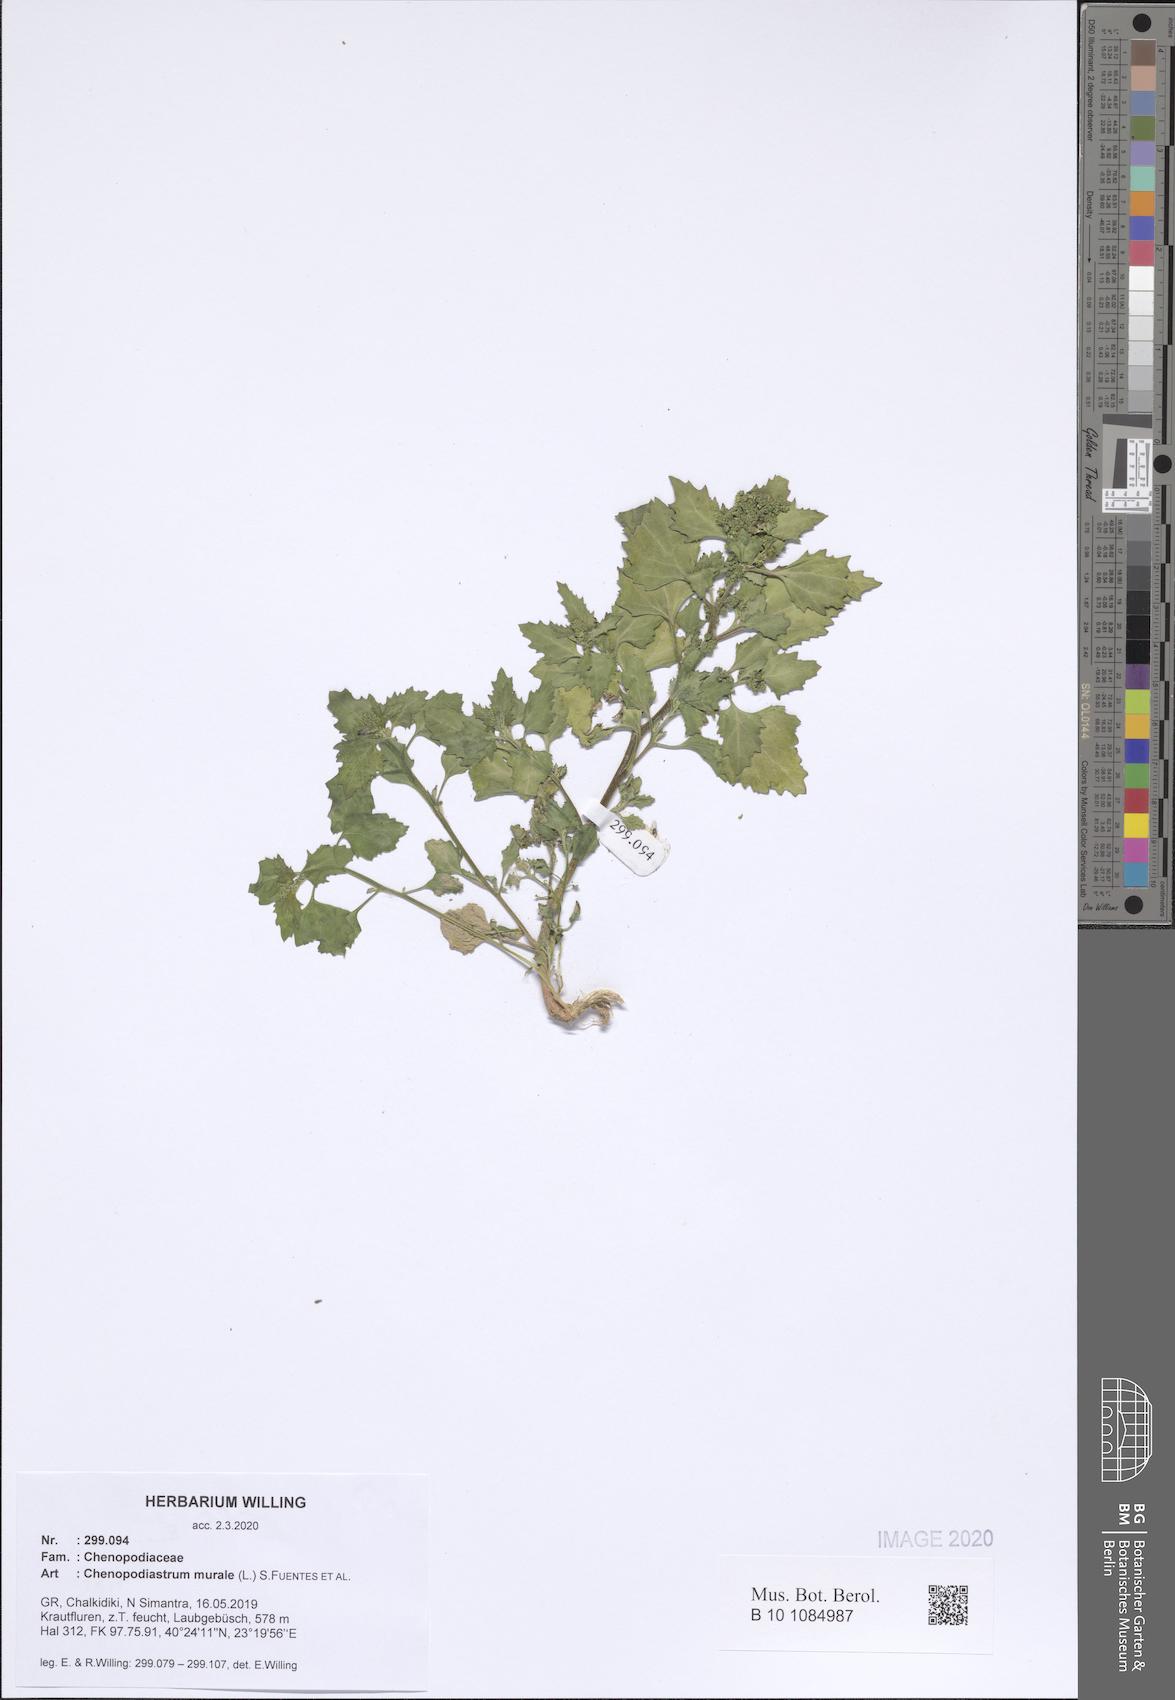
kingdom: Plantae
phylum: Tracheophyta
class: Magnoliopsida
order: Caryophyllales
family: Amaranthaceae
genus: Chenopodiastrum
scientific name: Chenopodiastrum murale
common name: Sowbane
